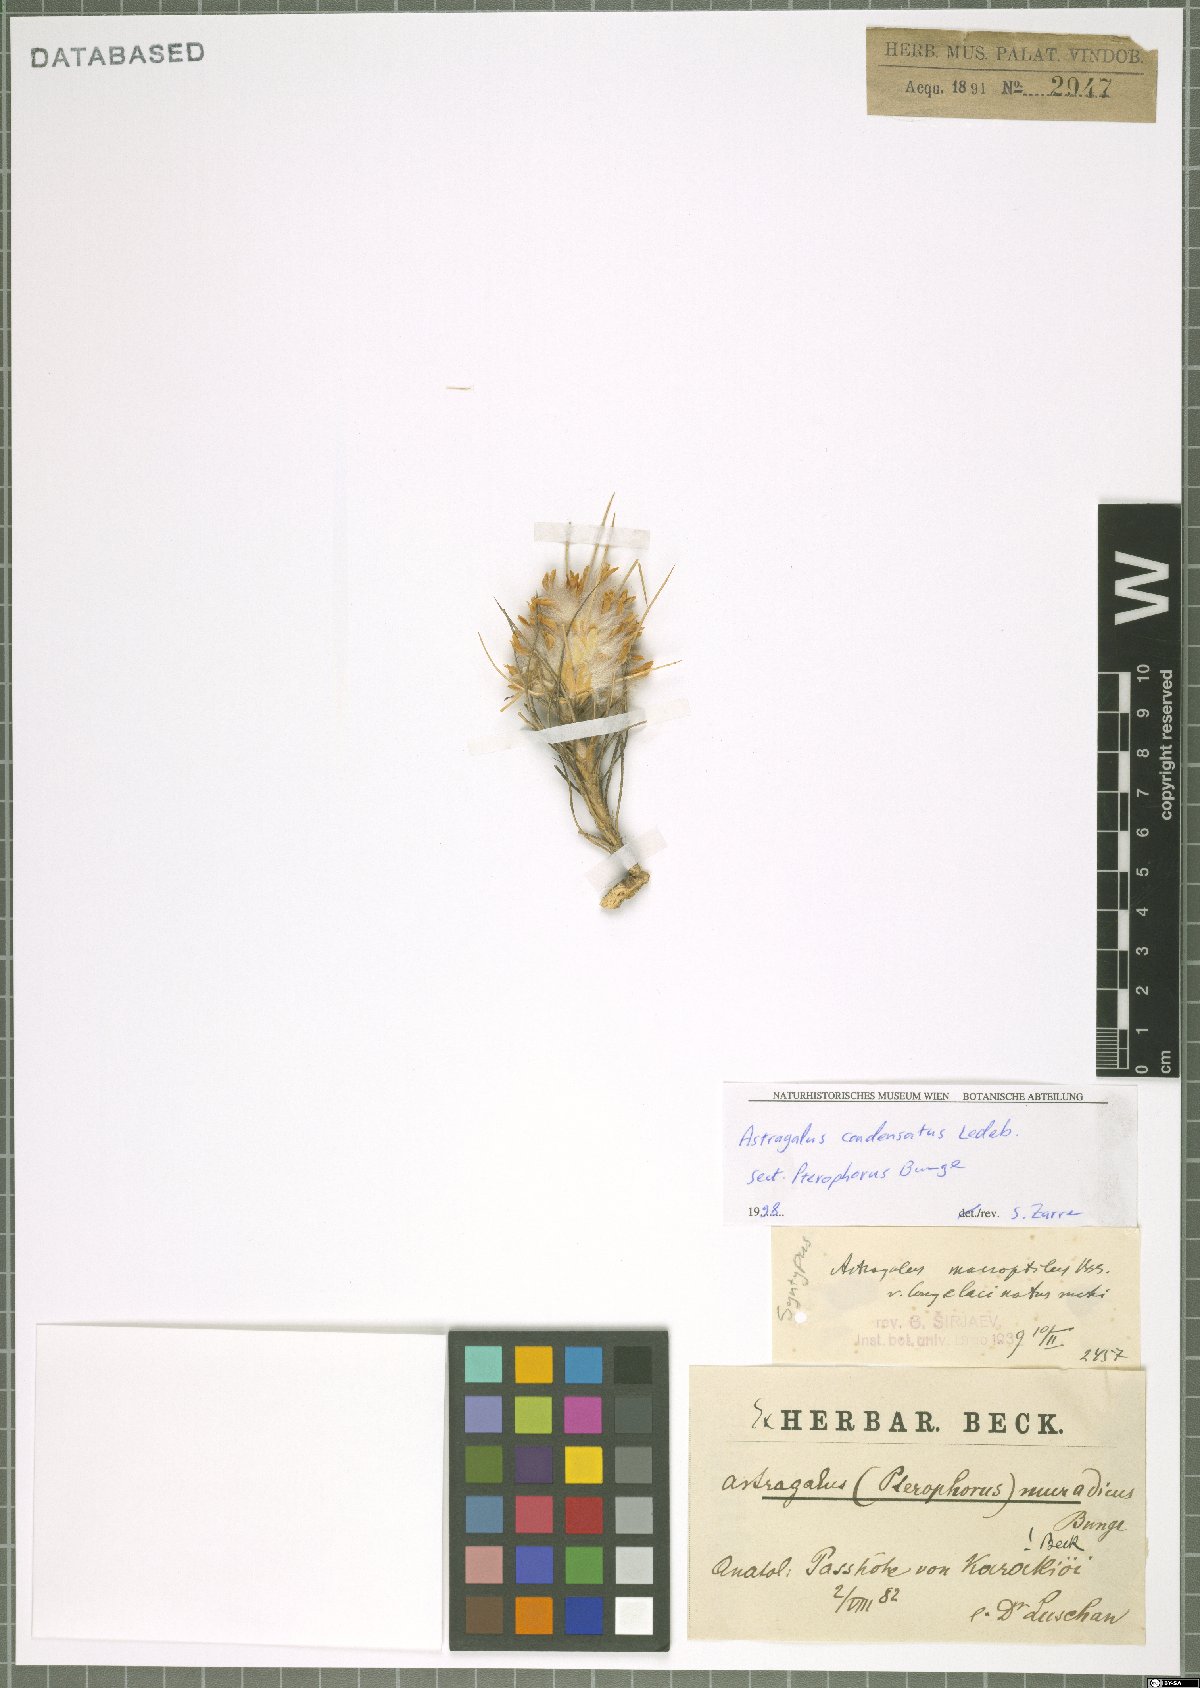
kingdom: Plantae
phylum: Tracheophyta
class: Magnoliopsida
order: Fabales
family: Fabaceae
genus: Astragalus
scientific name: Astragalus condensatus
